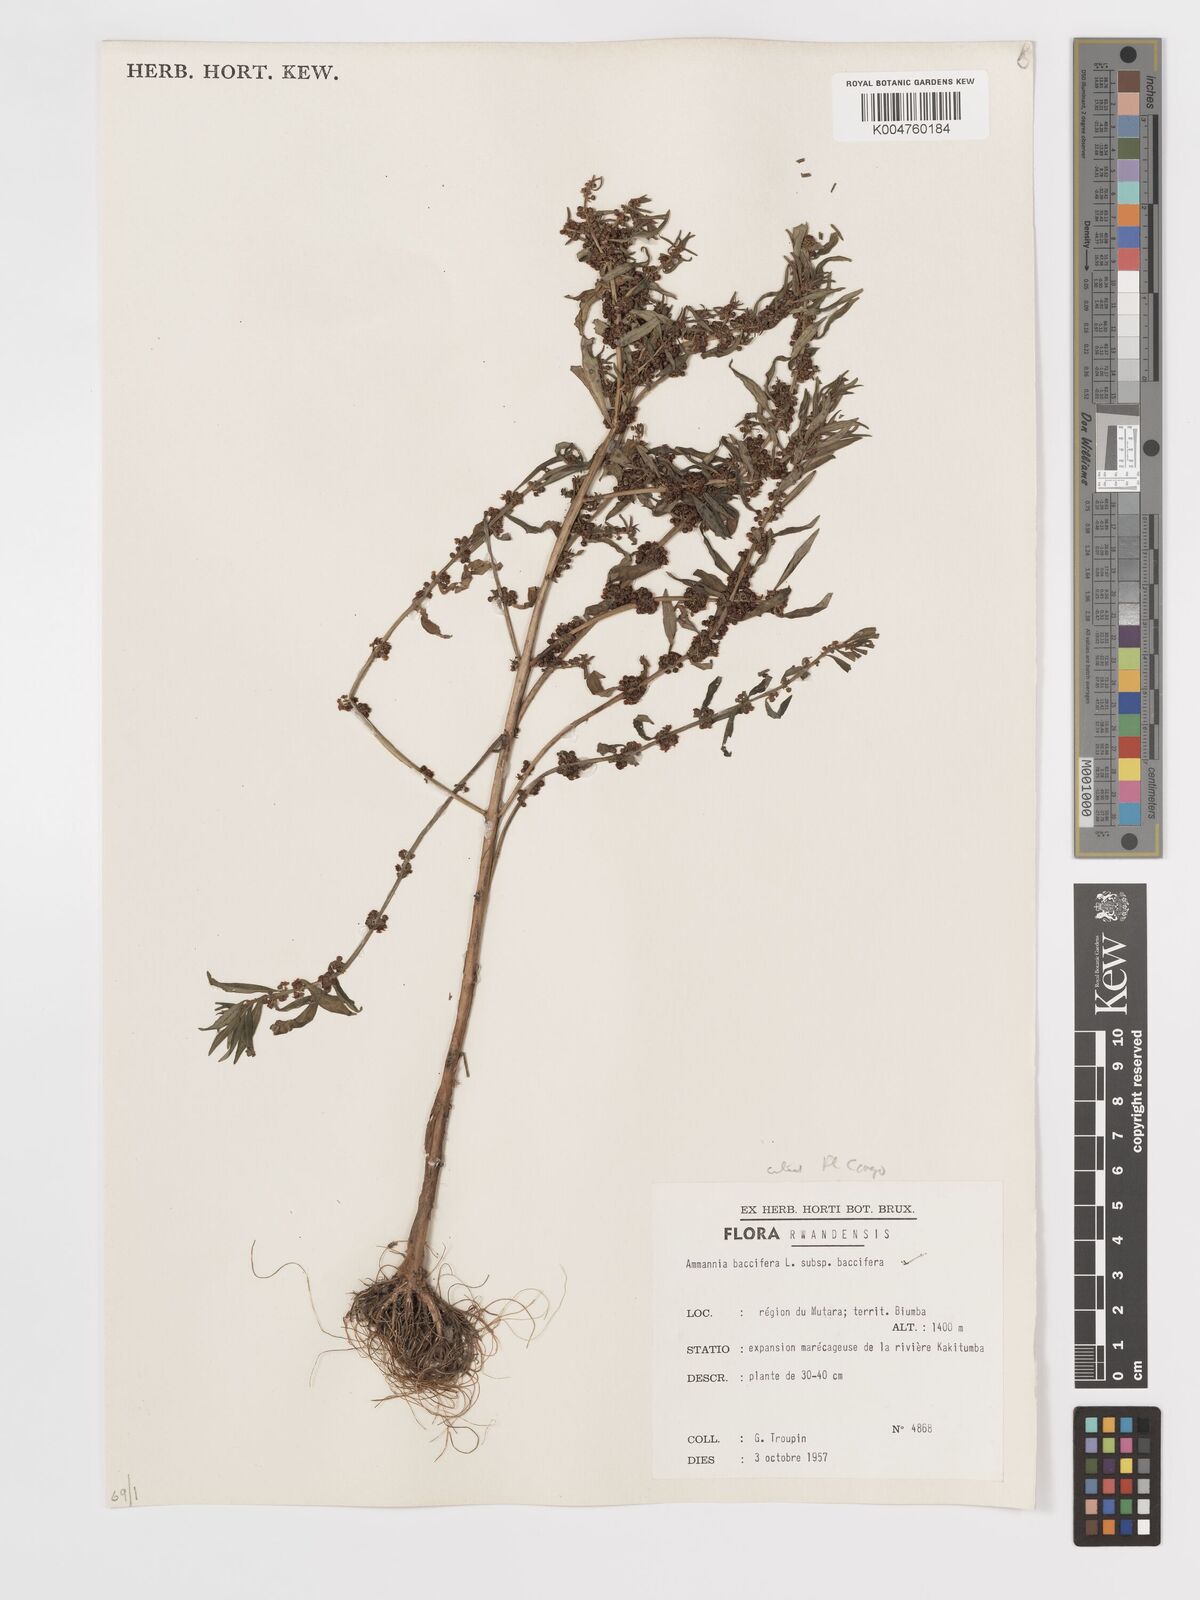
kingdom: Plantae
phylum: Tracheophyta
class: Magnoliopsida
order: Myrtales
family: Lythraceae
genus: Ammannia
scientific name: Ammannia
